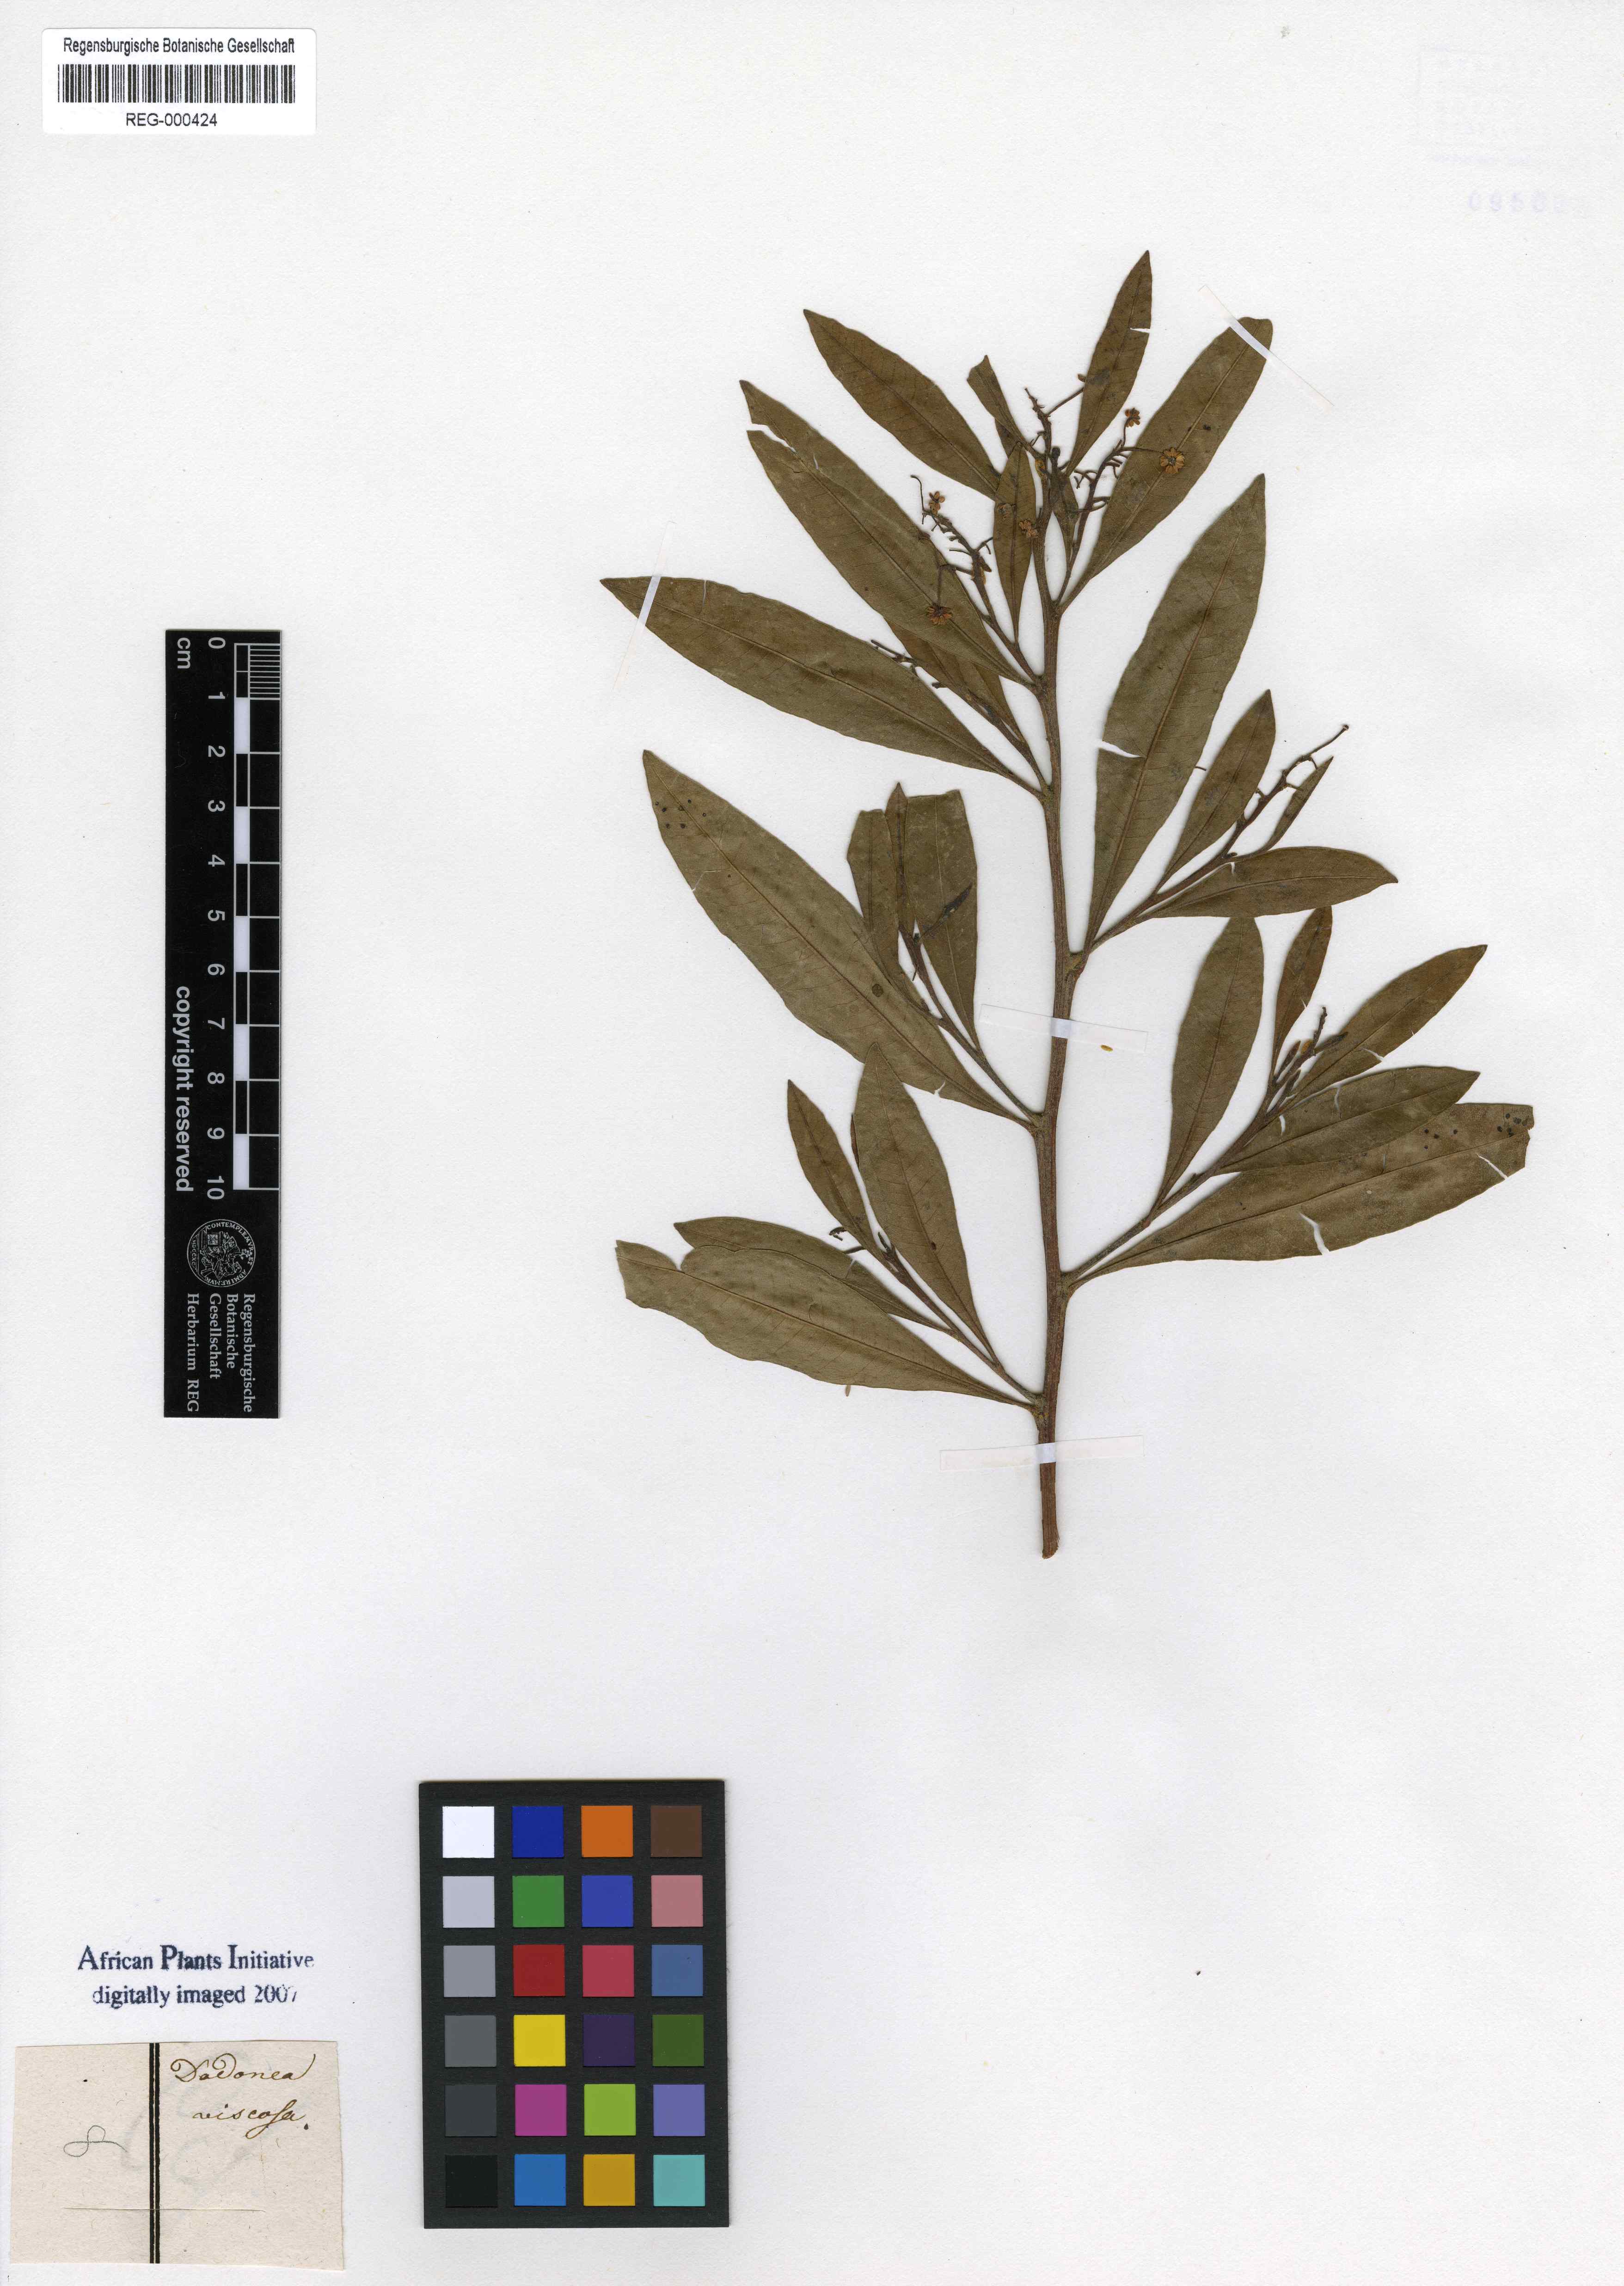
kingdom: Plantae
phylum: Tracheophyta
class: Magnoliopsida
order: Sapindales
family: Sapindaceae
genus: Dodonaea
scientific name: Dodonaea viscosa
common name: Hopbush
